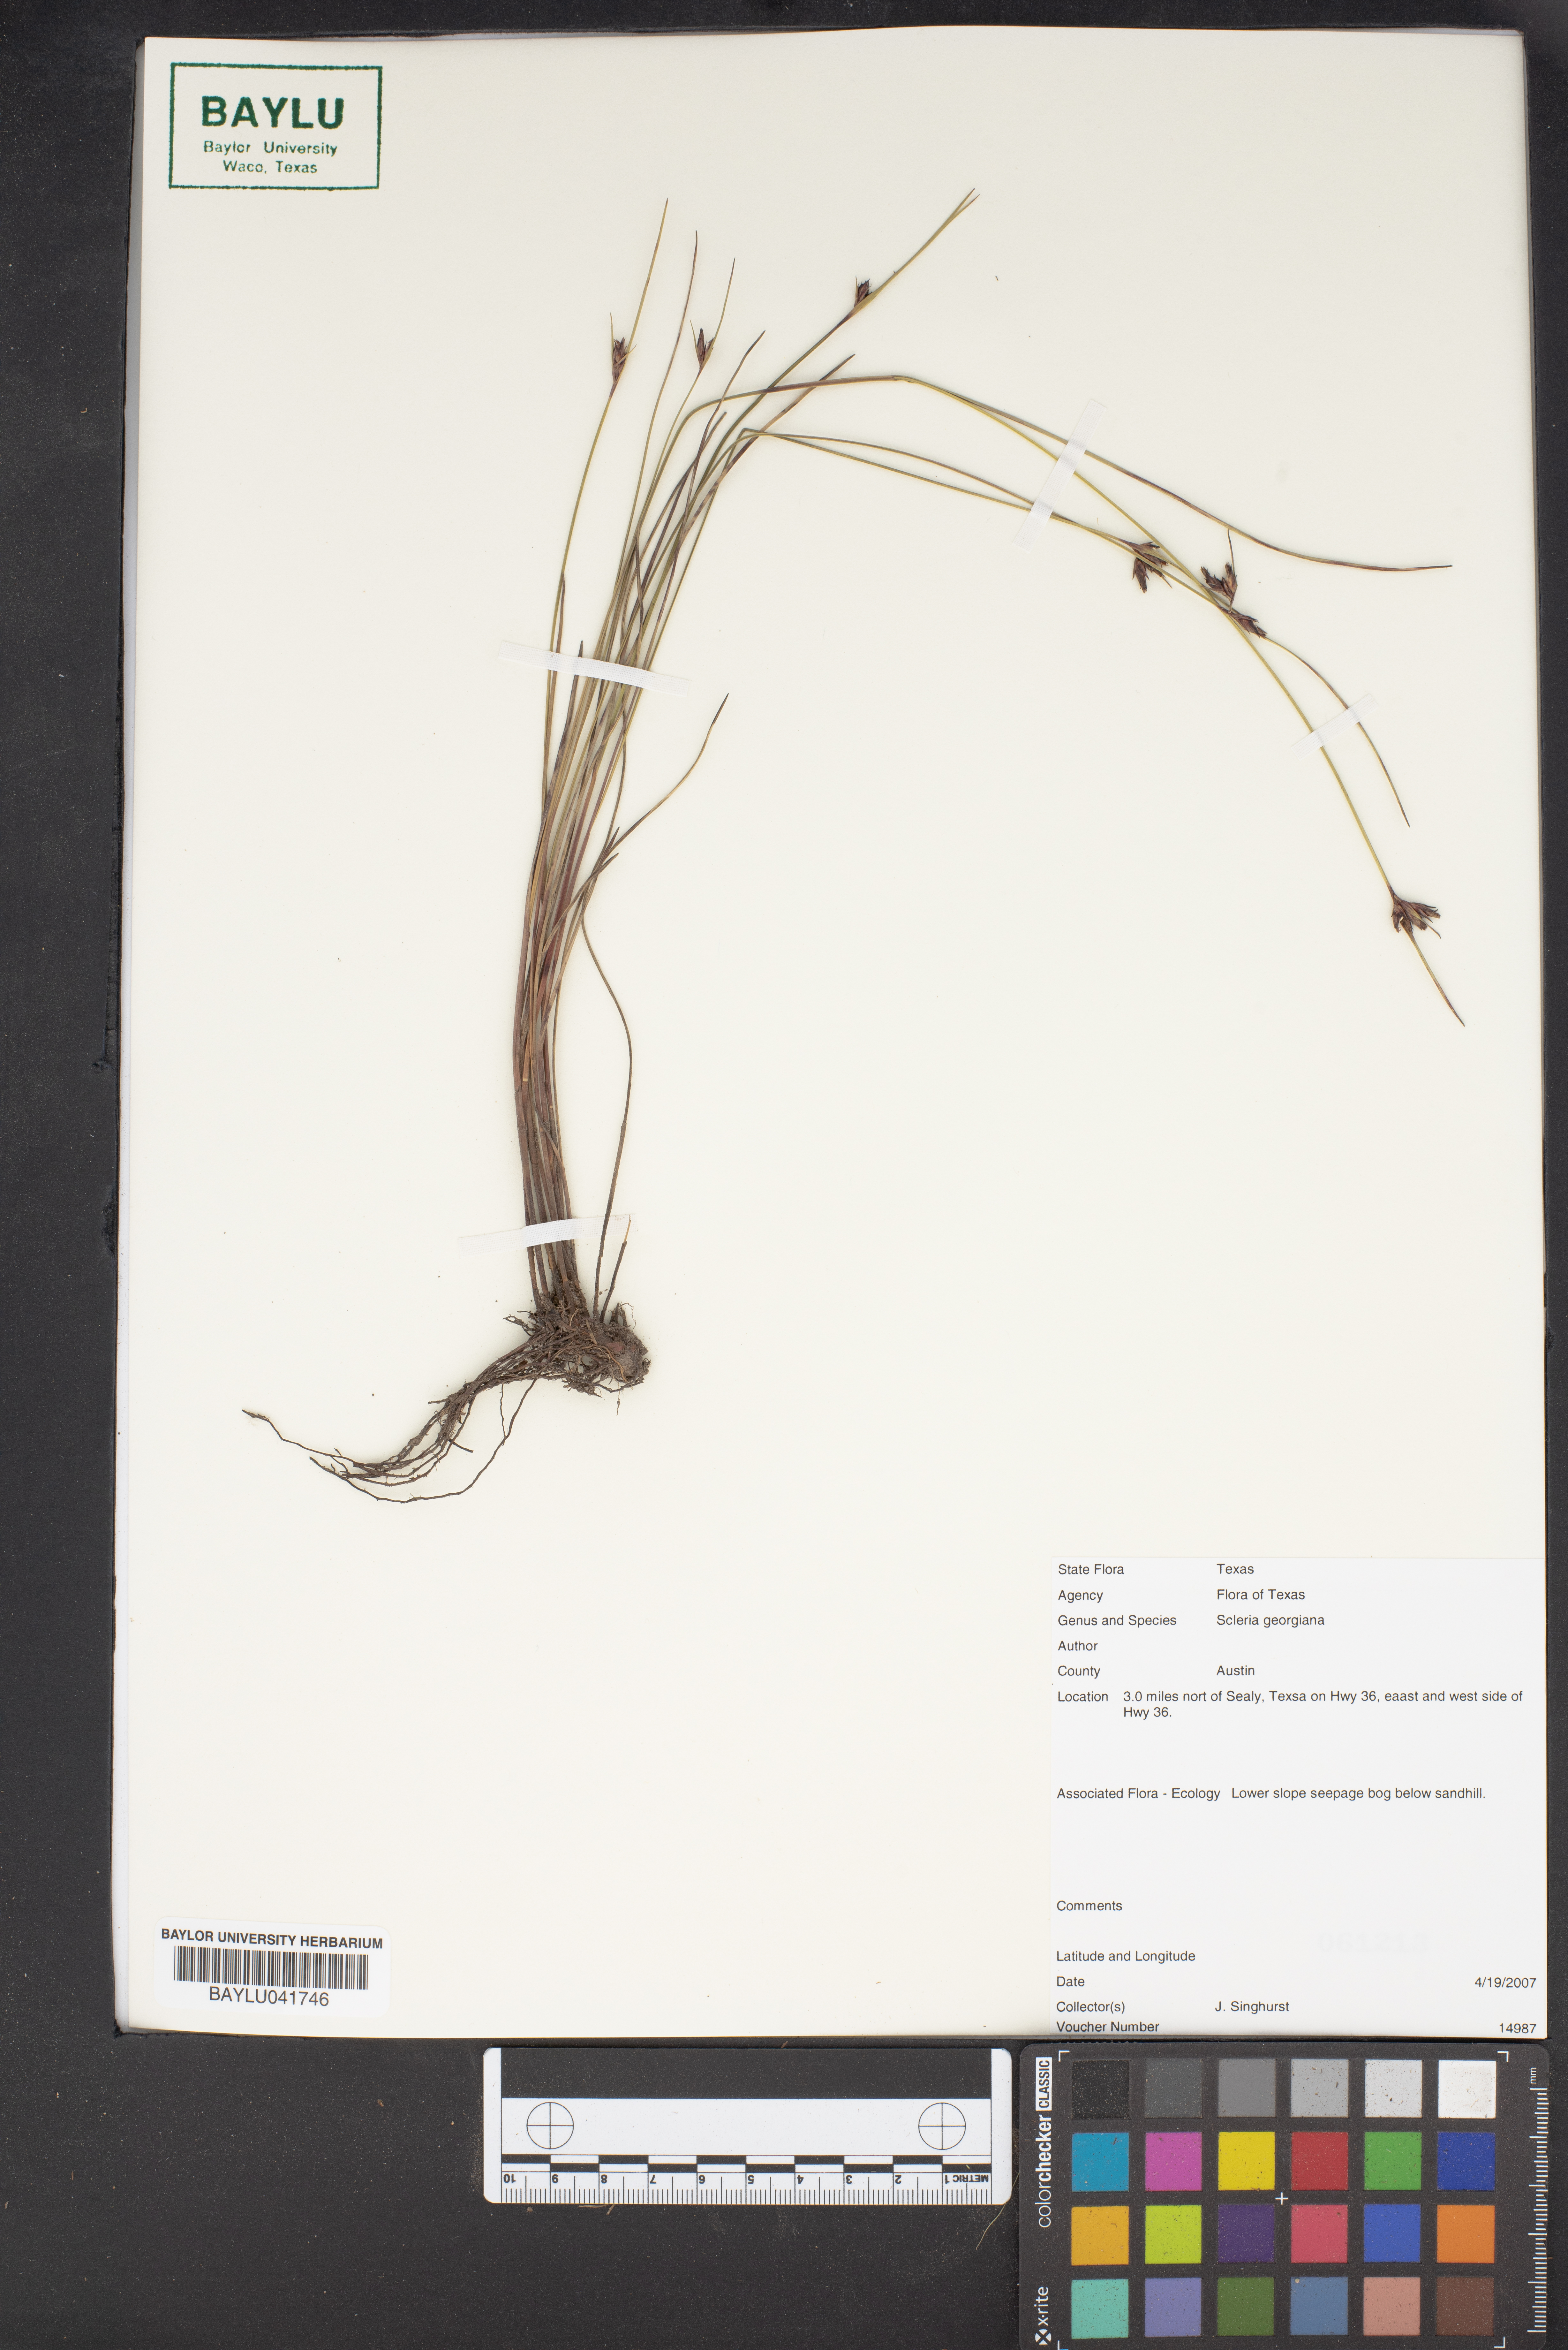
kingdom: Plantae
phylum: Tracheophyta
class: Liliopsida
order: Poales
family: Cyperaceae
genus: Scleria
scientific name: Scleria georgiana
